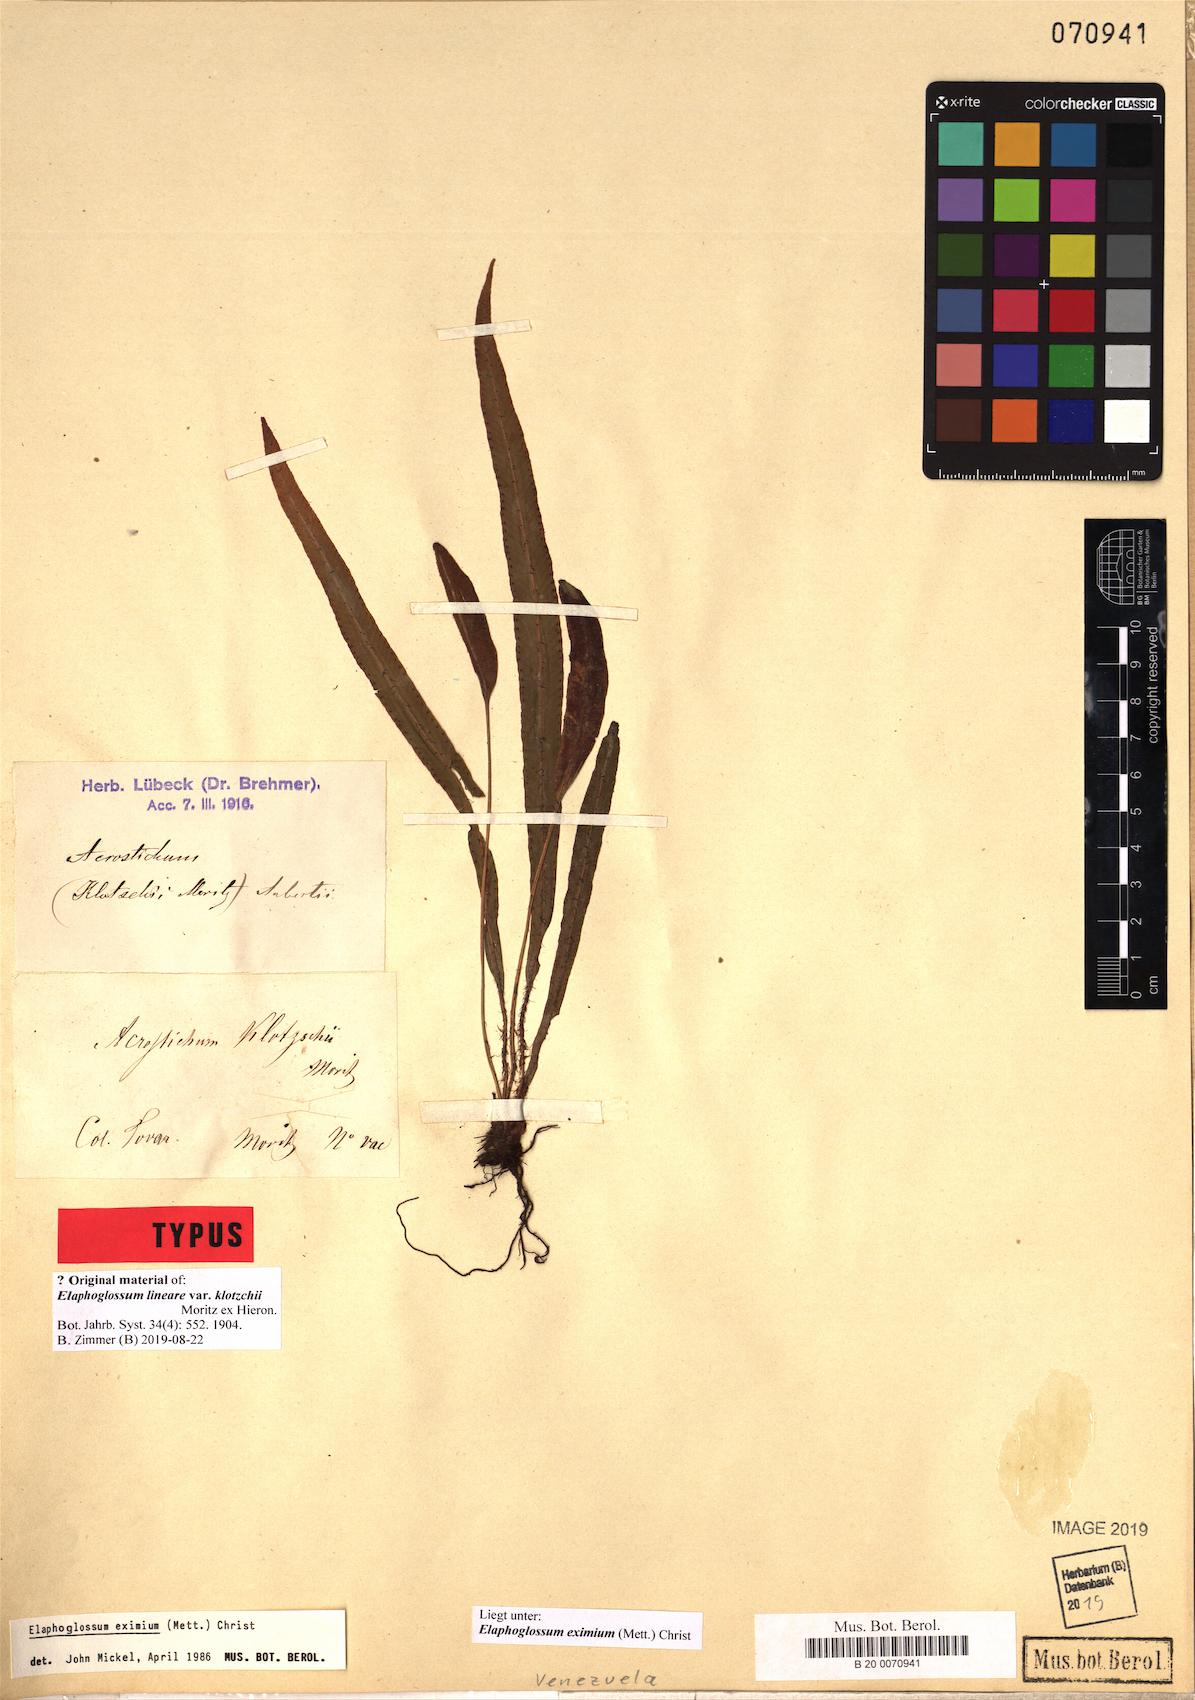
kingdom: Plantae
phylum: Tracheophyta
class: Polypodiopsida
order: Polypodiales
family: Dryopteridaceae
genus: Elaphoglossum
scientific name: Elaphoglossum eximium
